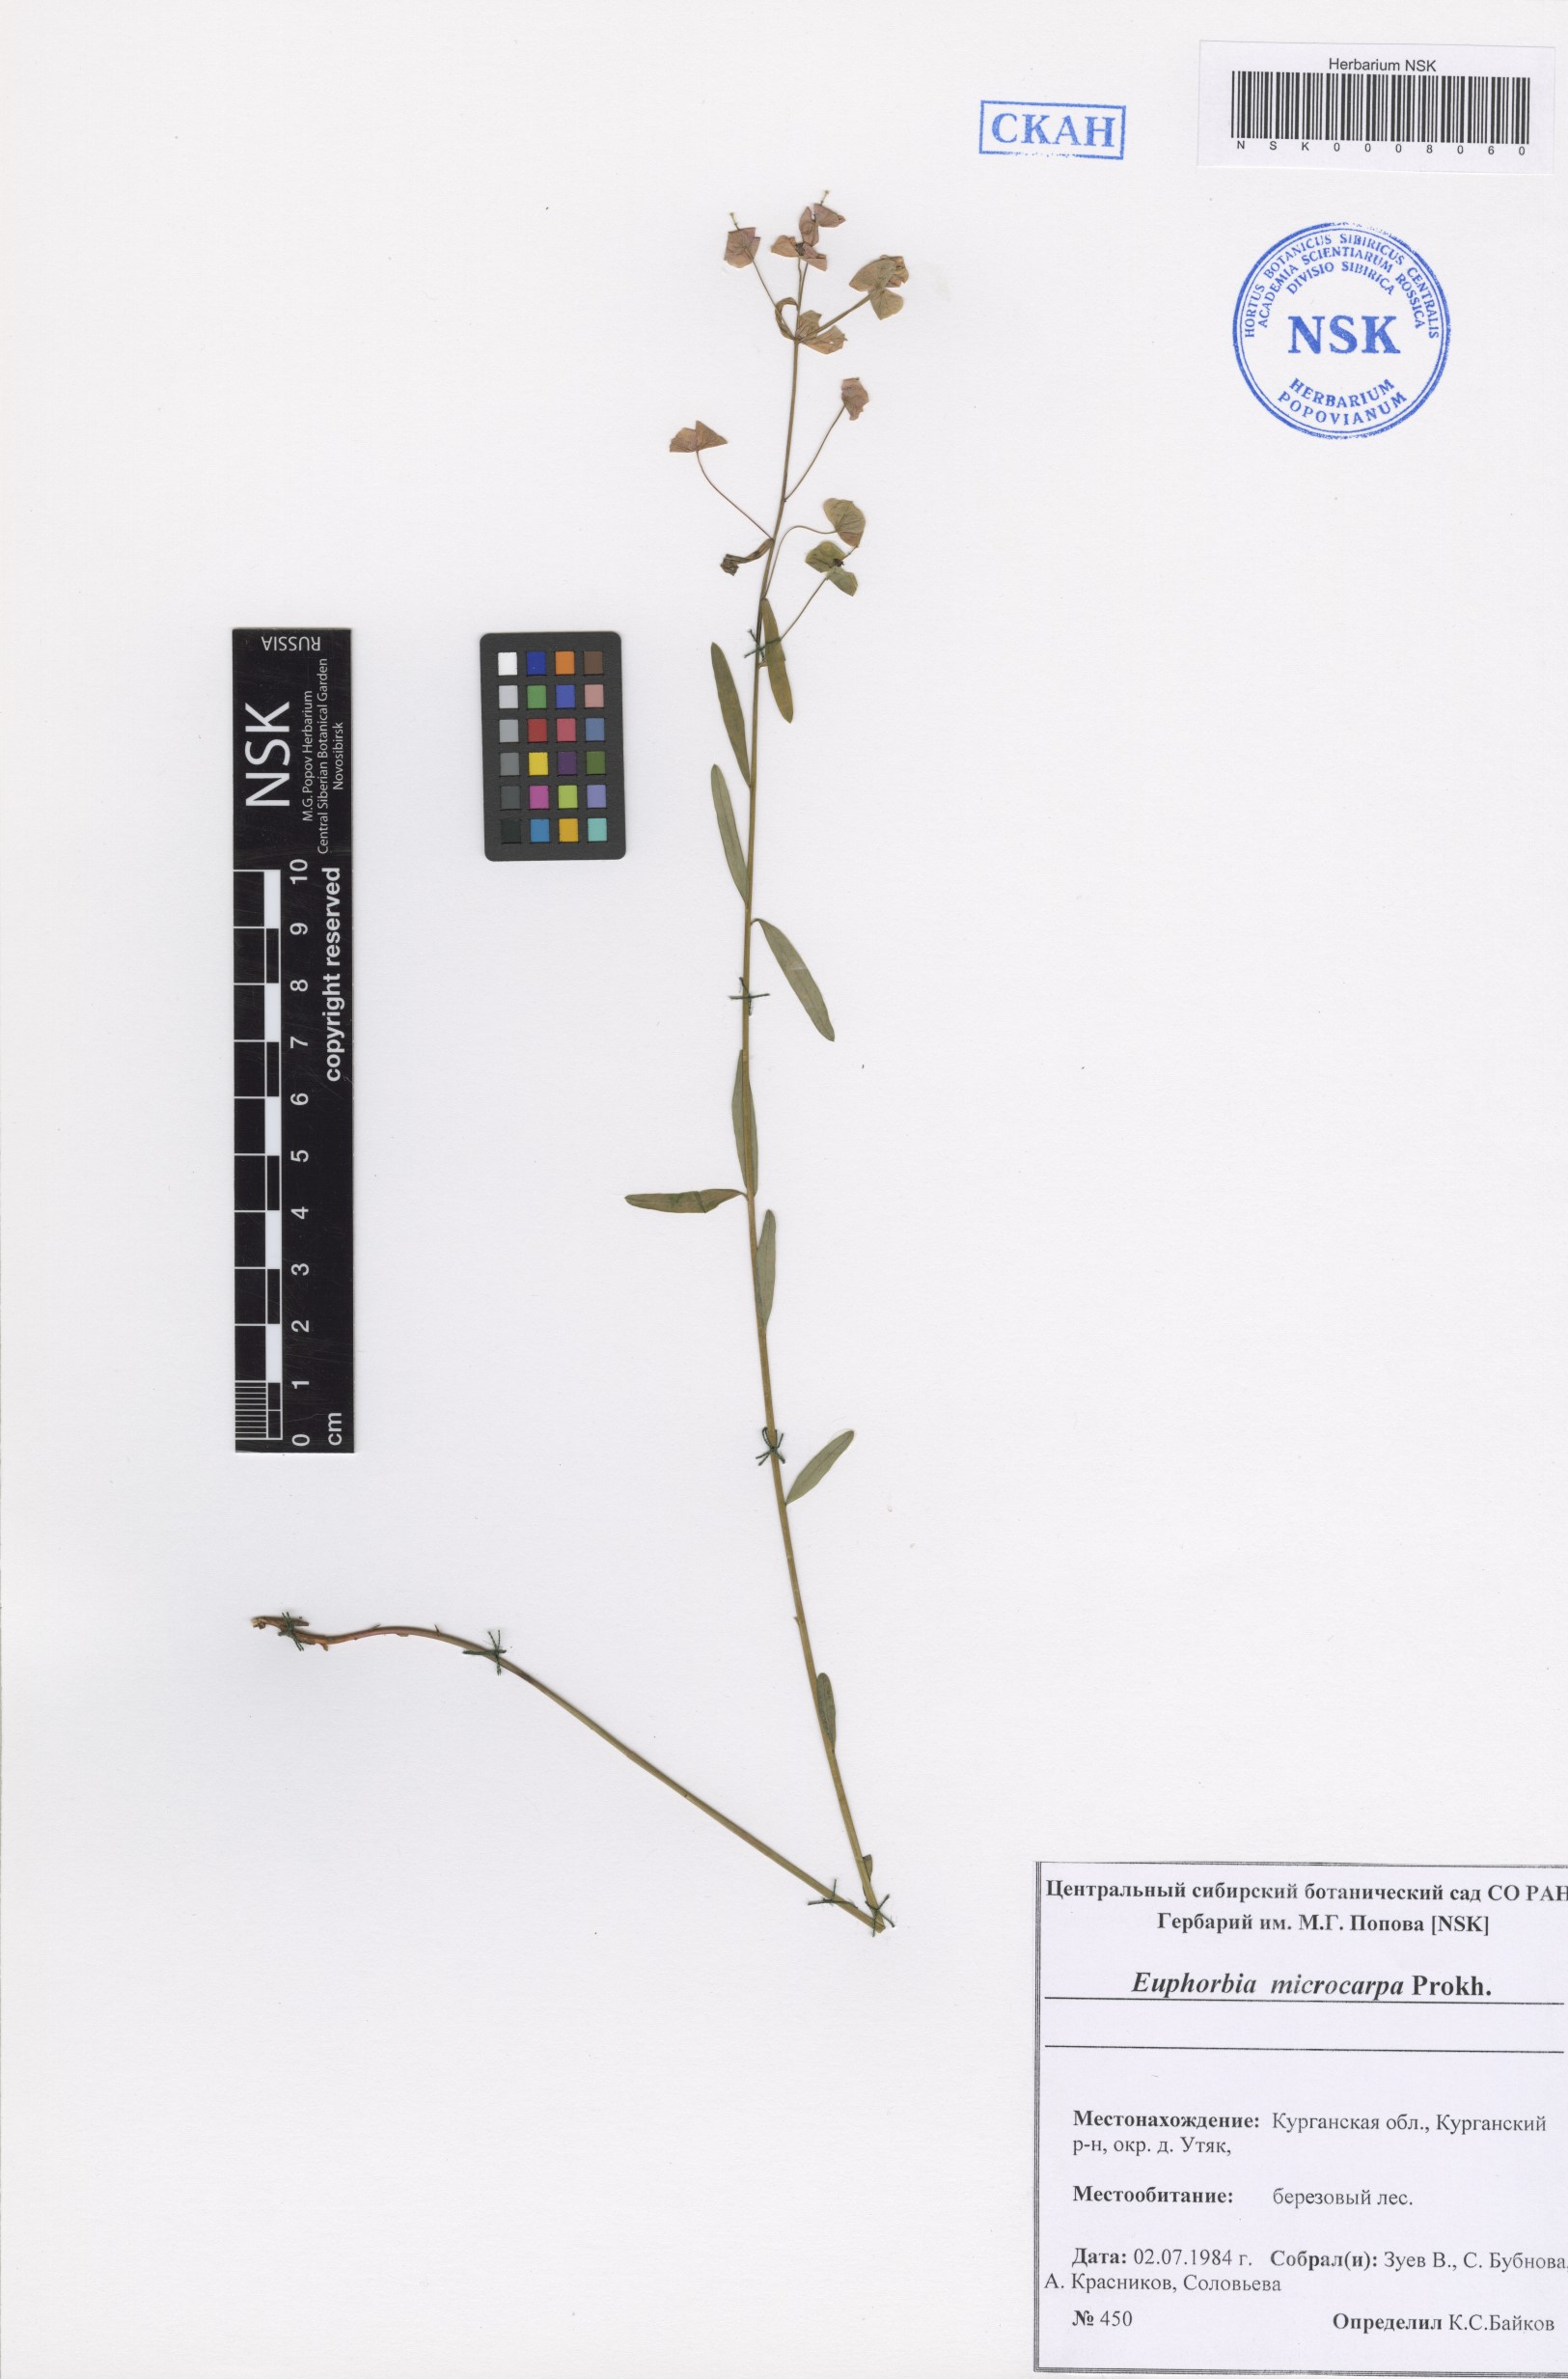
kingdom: Plantae
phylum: Tracheophyta
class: Magnoliopsida
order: Malpighiales
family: Euphorbiaceae
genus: Euphorbia
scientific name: Euphorbia microcarpa
